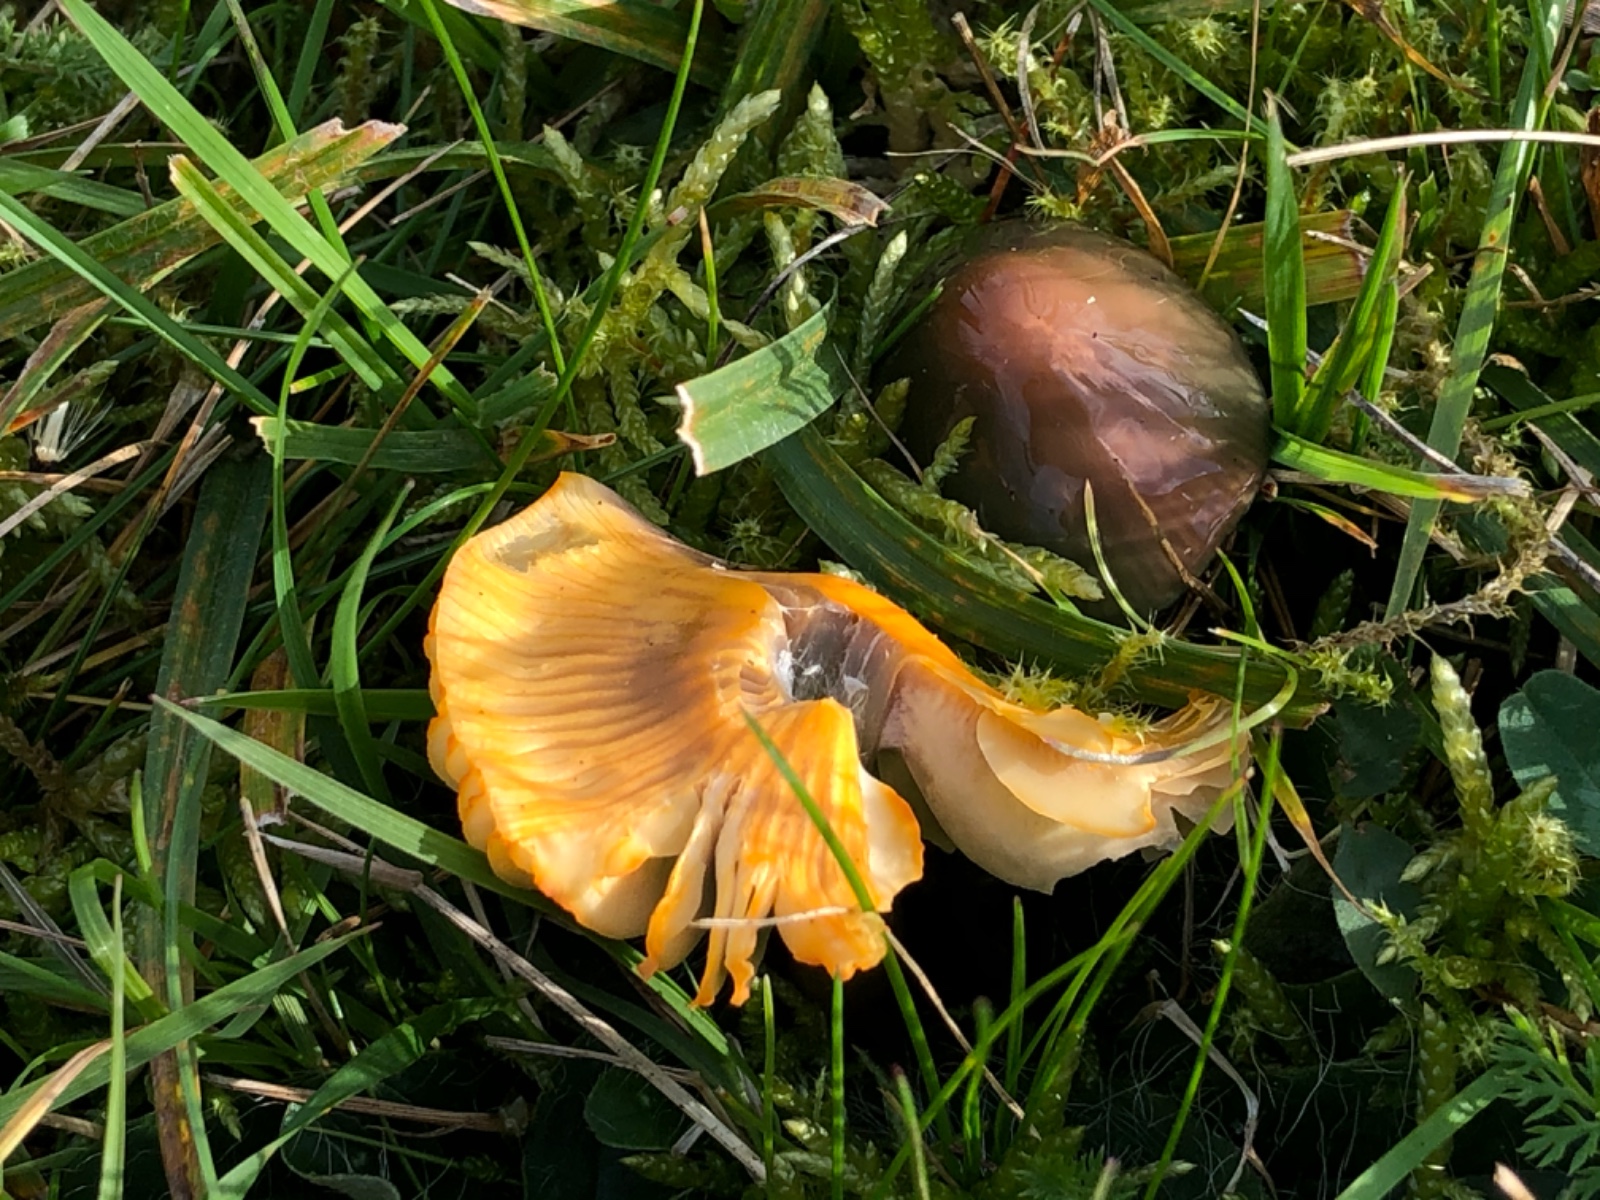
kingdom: Fungi
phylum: Basidiomycota
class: Agaricomycetes
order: Agaricales
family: Hygrophoraceae
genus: Gliophorus
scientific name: Gliophorus psittacinus
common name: papegøje-vokshat
